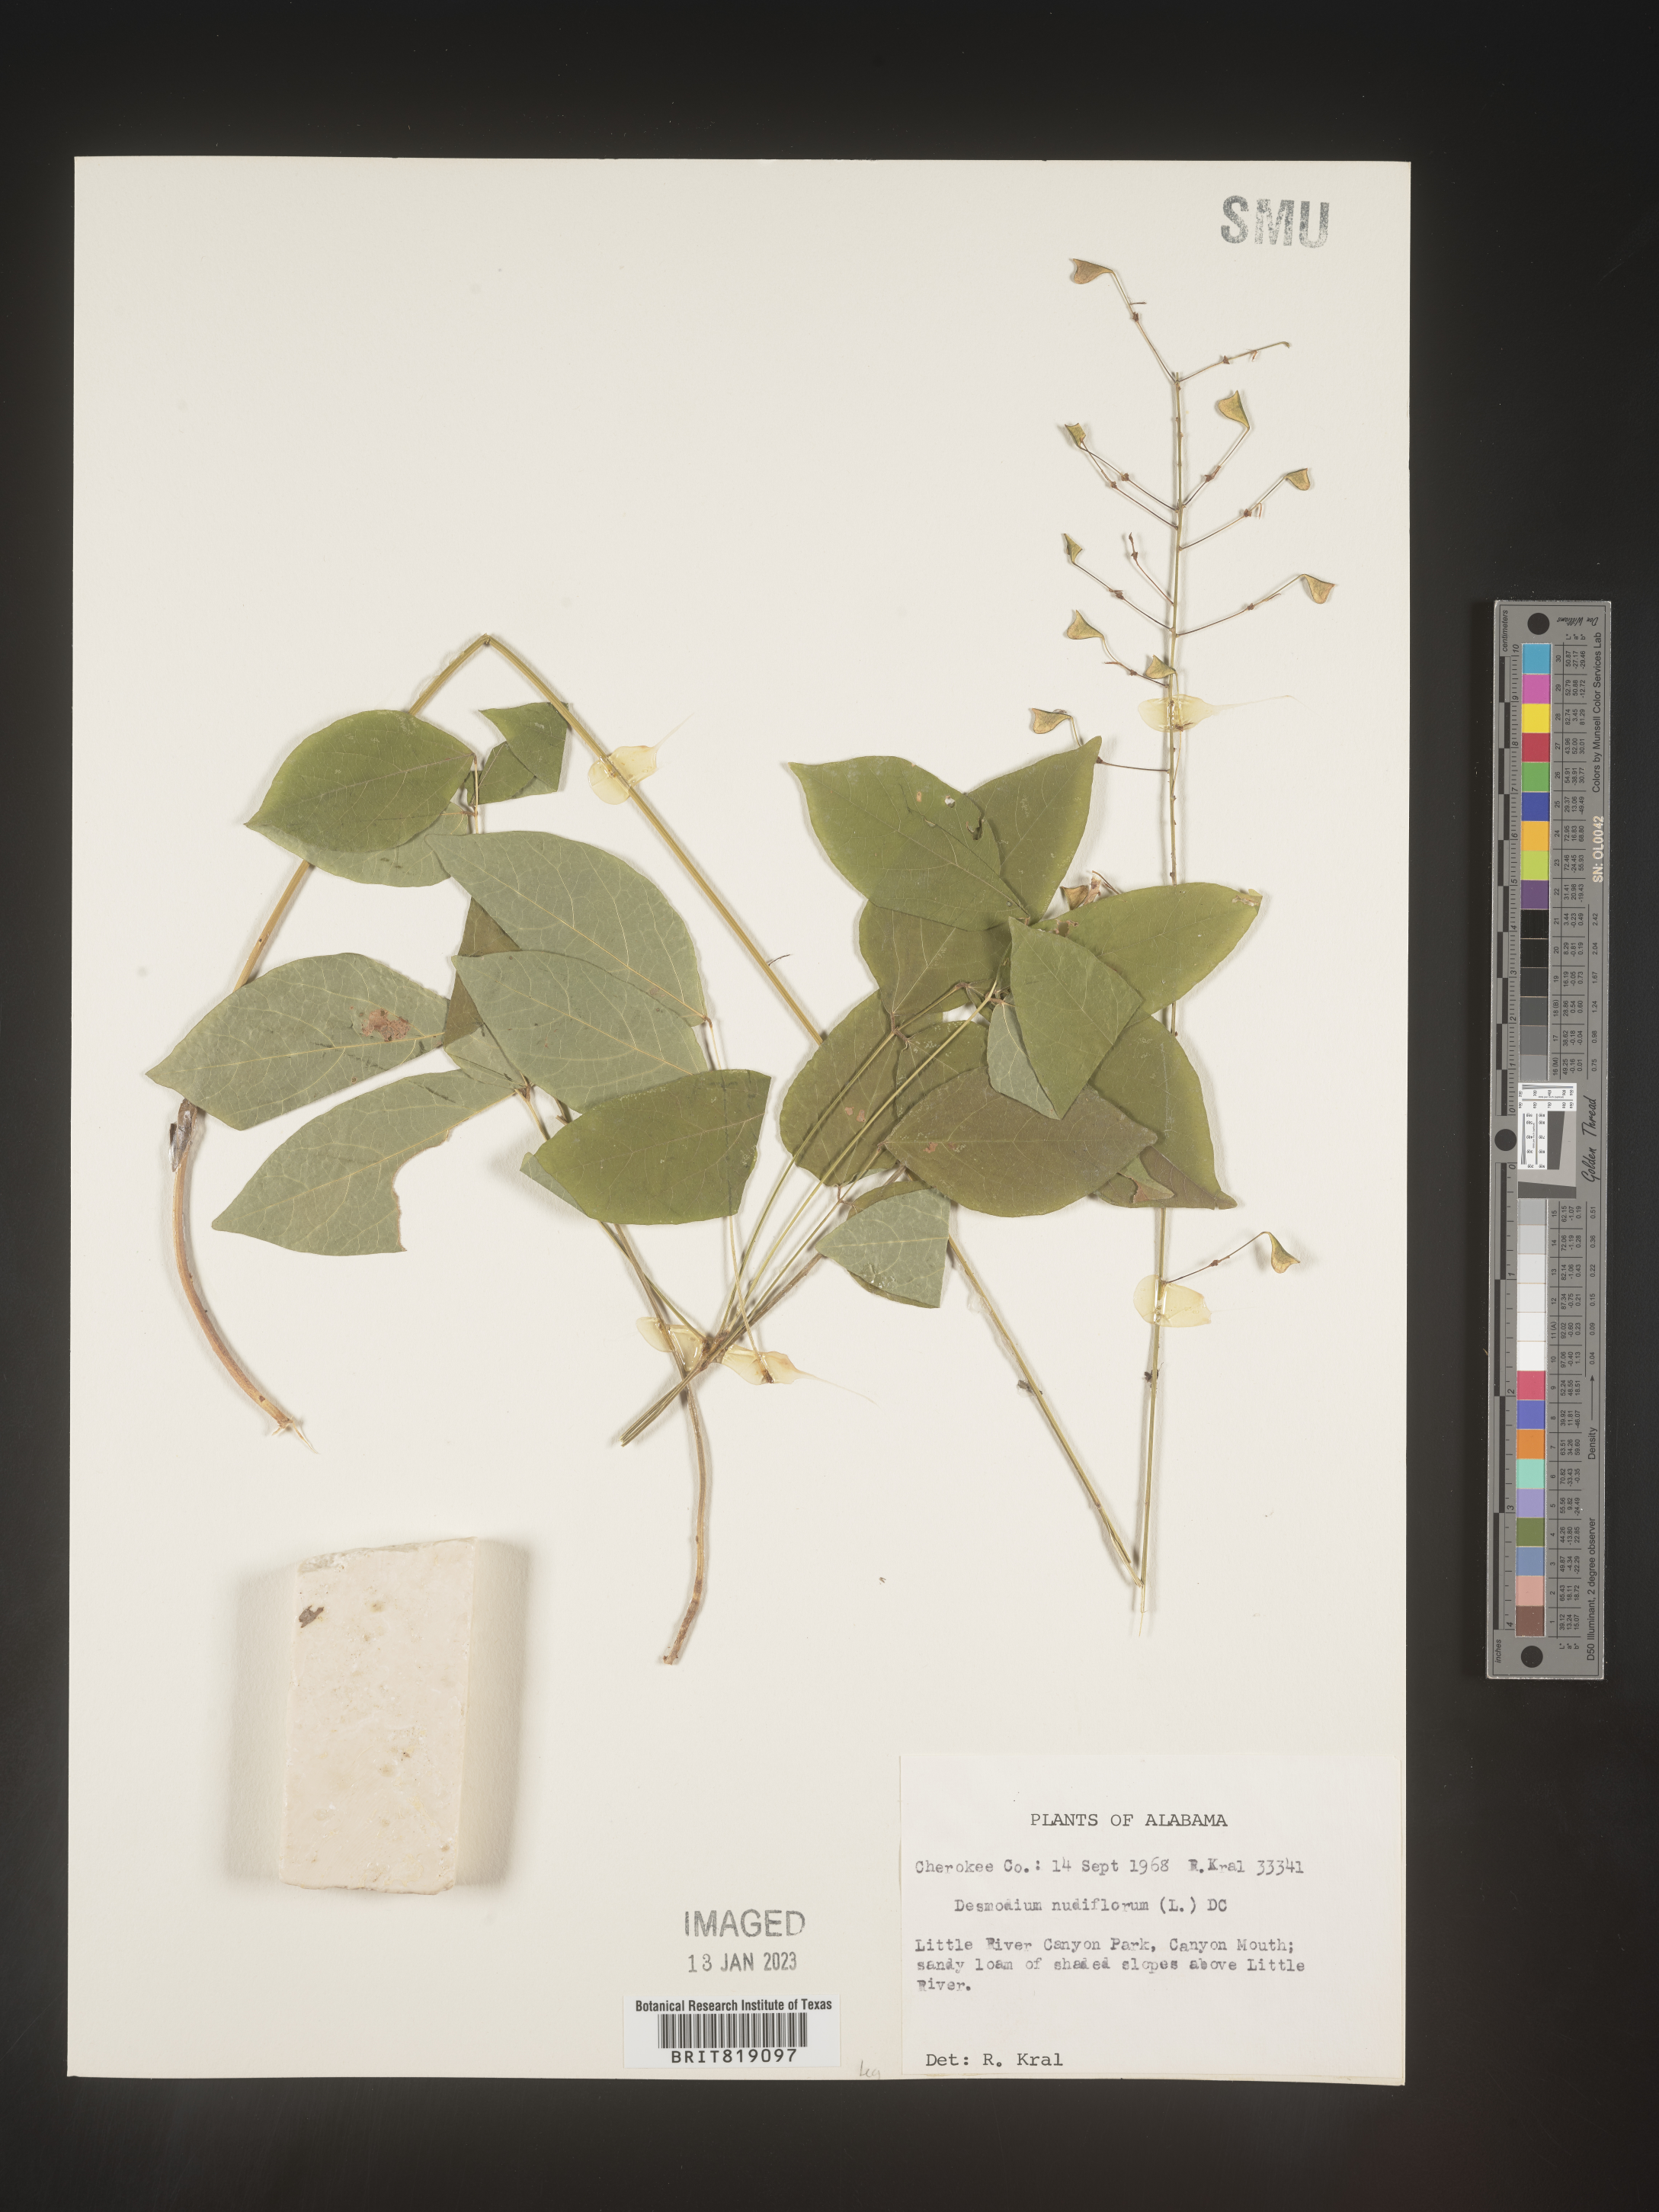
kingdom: Plantae
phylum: Tracheophyta
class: Magnoliopsida
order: Fabales
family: Fabaceae
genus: Hylodesmum
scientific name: Hylodesmum nudiflorum
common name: Bare-stemmed tick-trefoil
